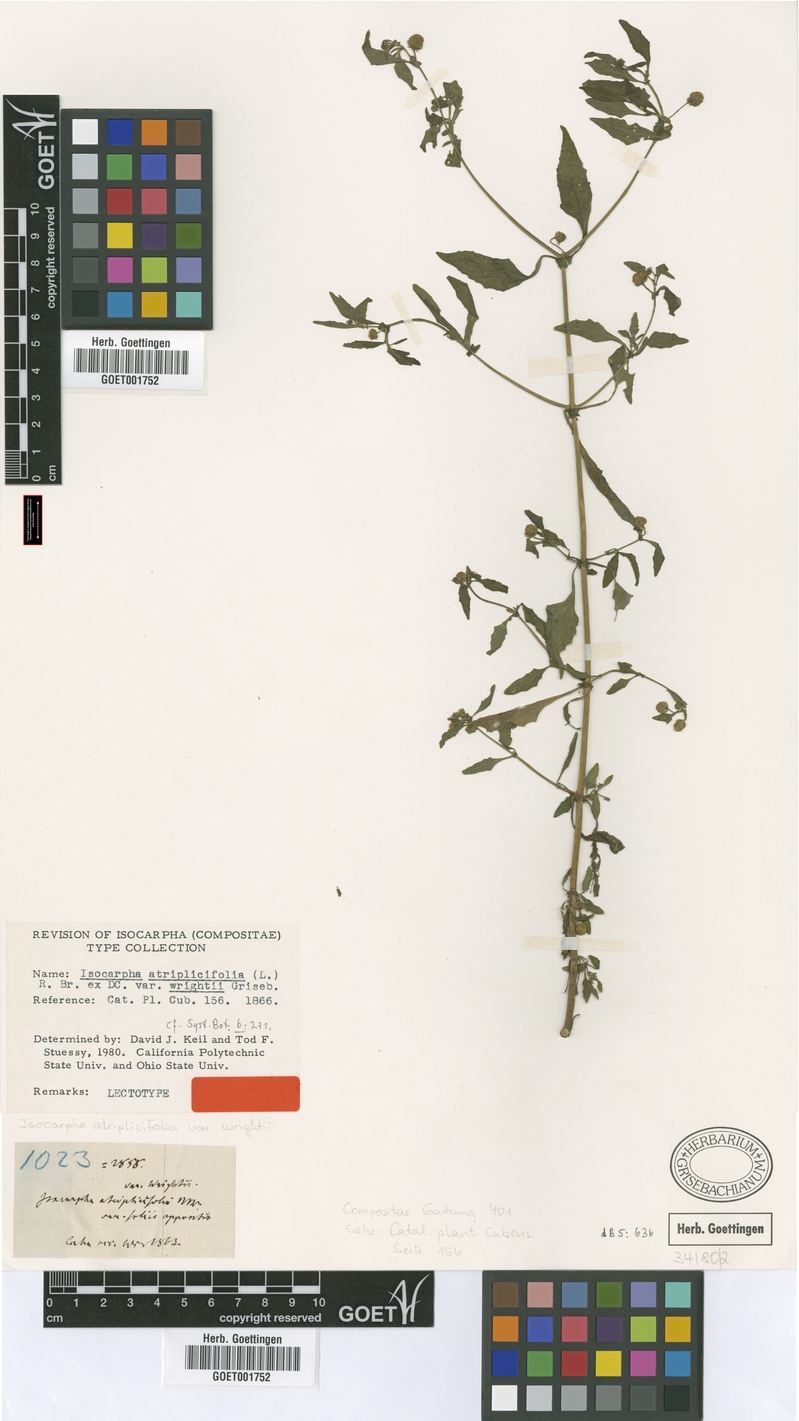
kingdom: Plantae
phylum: Tracheophyta
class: Magnoliopsida
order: Asterales
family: Asteraceae
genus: Isocarpha
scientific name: Isocarpha atriplicifolia
